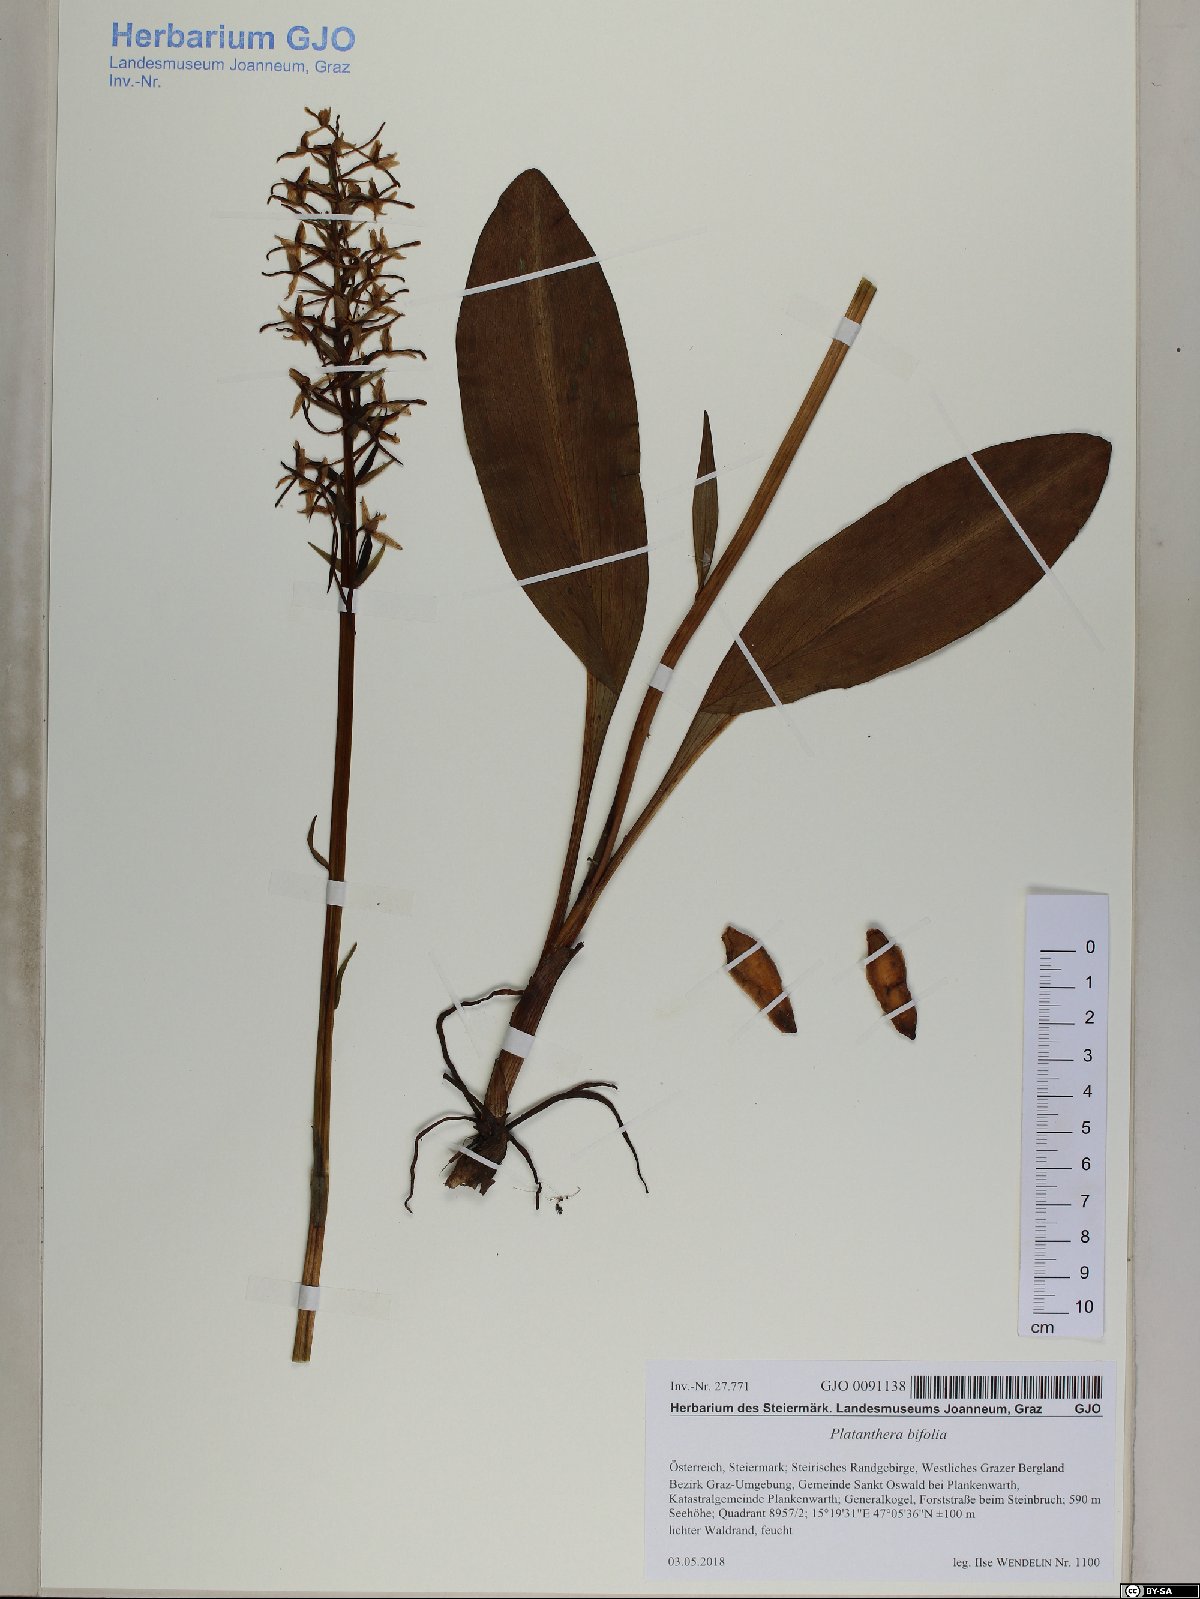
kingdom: Plantae
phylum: Tracheophyta
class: Liliopsida
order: Asparagales
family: Orchidaceae
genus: Platanthera
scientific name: Platanthera bifolia
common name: Lesser butterfly-orchid
